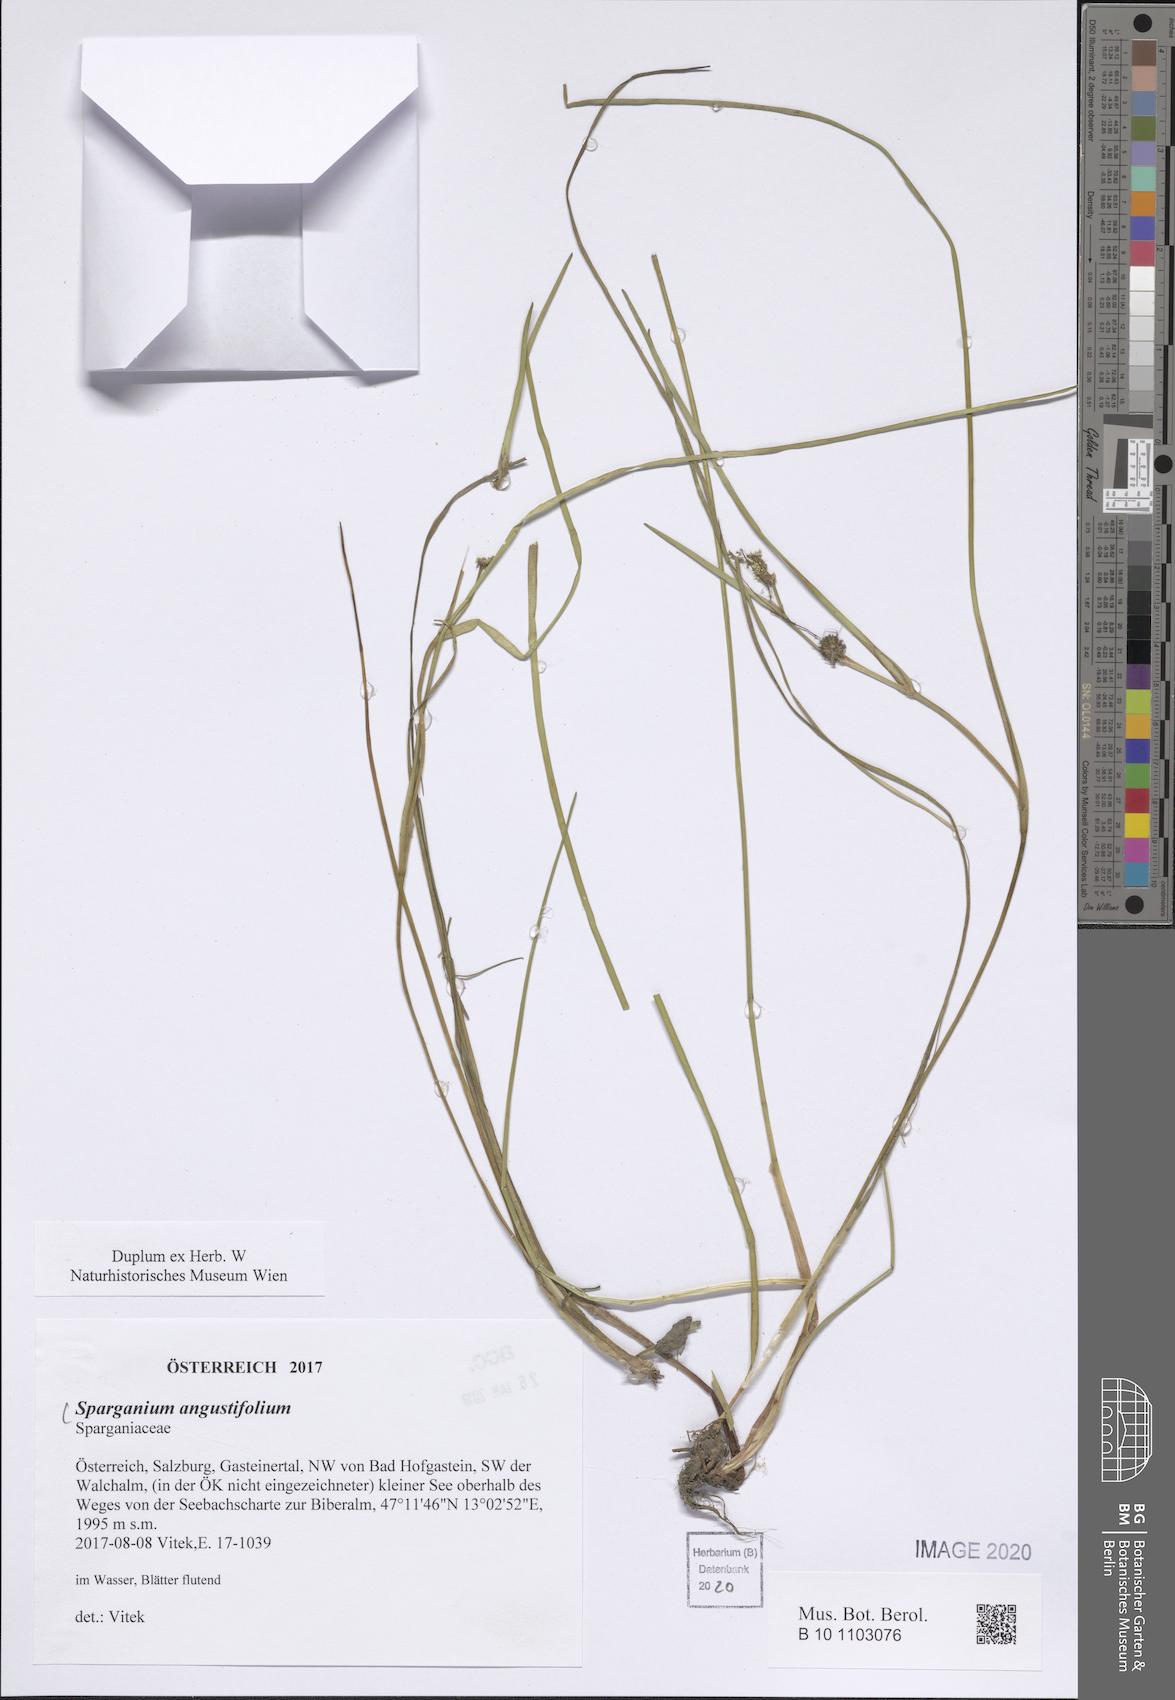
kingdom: Plantae
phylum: Tracheophyta
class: Liliopsida
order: Poales
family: Typhaceae
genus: Sparganium
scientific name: Sparganium angustifolium
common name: Floating bur-reed
